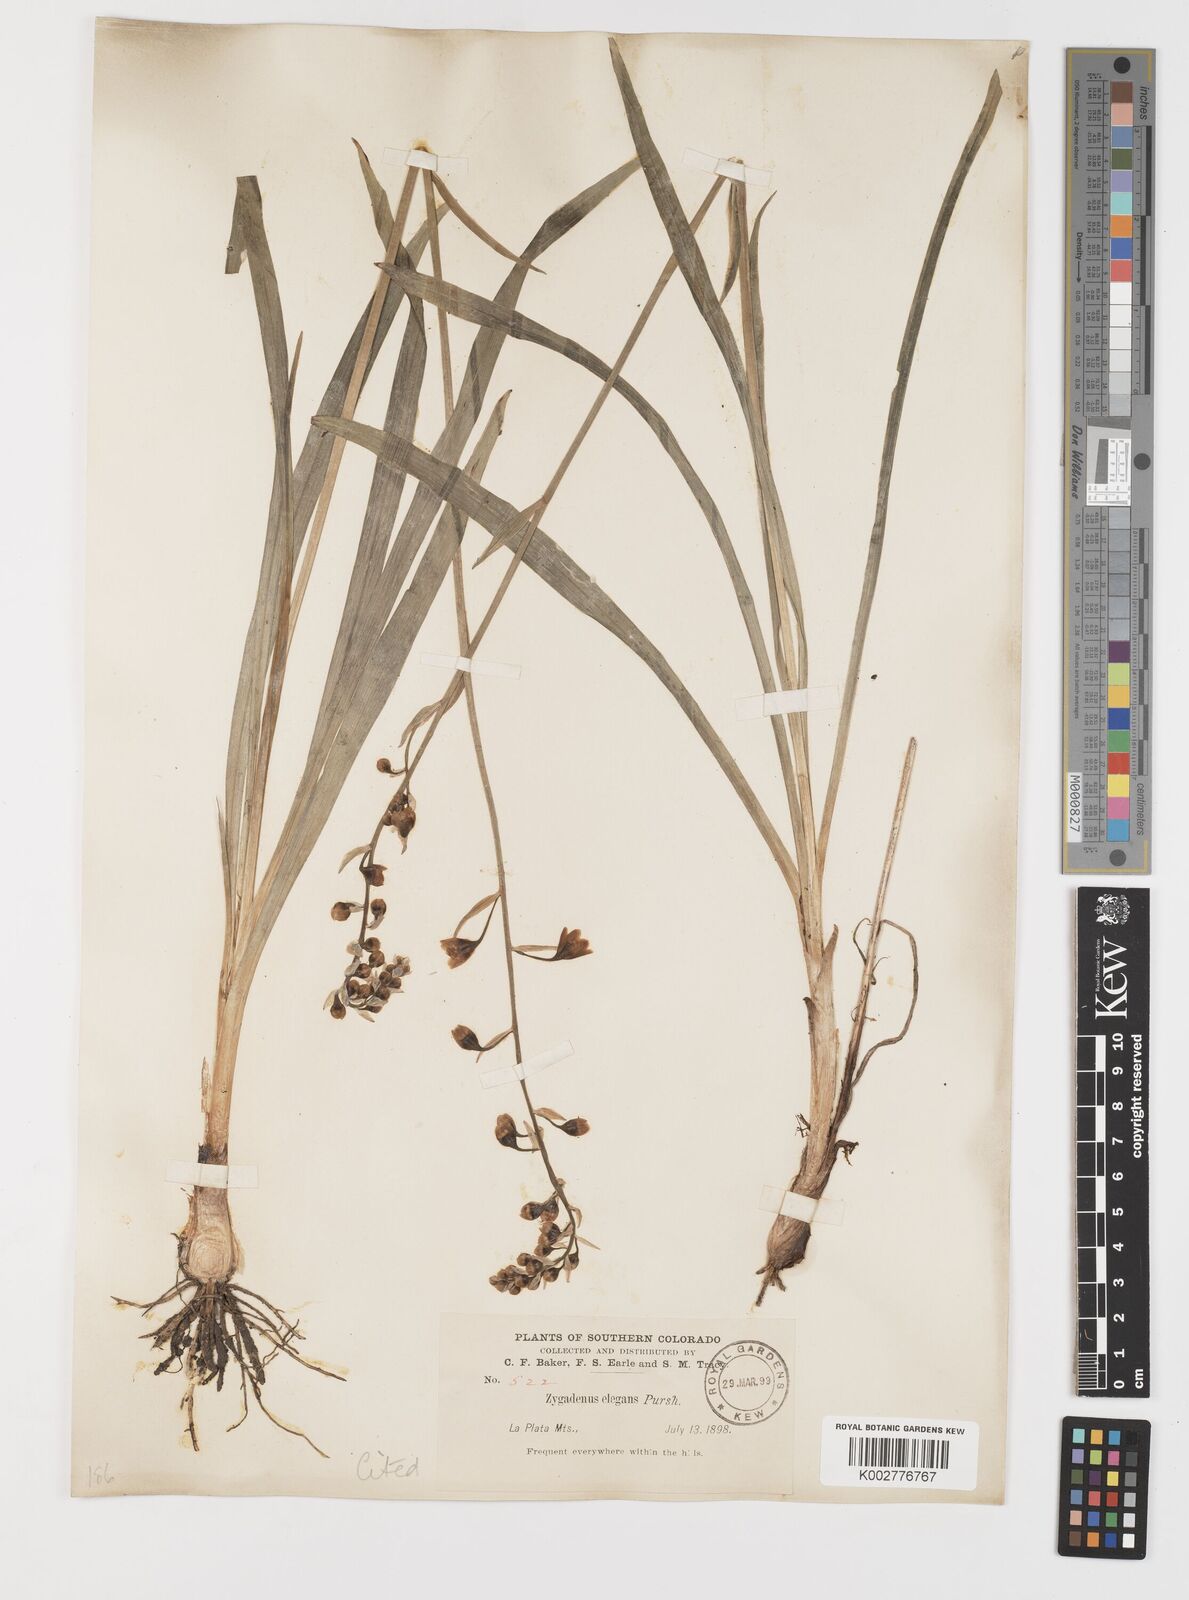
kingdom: Plantae
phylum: Tracheophyta
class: Liliopsida
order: Liliales
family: Melanthiaceae
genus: Anticlea
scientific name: Anticlea elegans
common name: Mountain death camas
